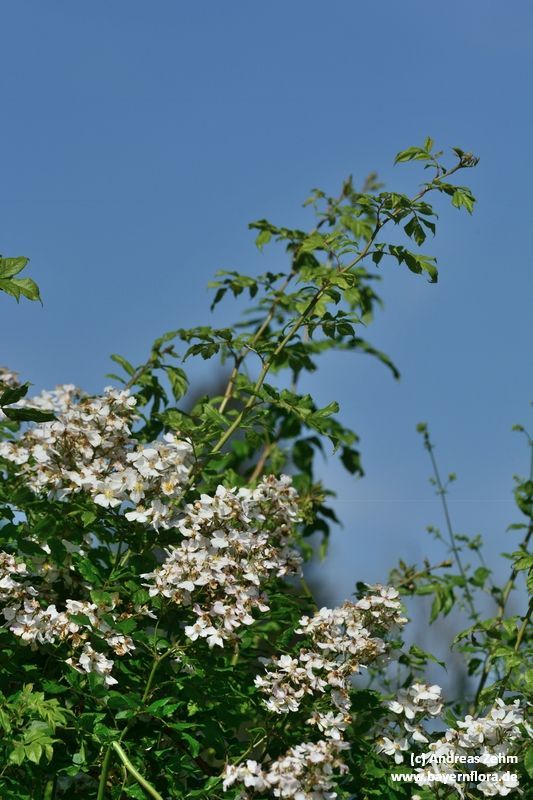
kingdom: Plantae
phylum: Tracheophyta
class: Magnoliopsida
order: Rosales
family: Rosaceae
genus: Rosa
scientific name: Rosa multiflora
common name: Multiflora rose
